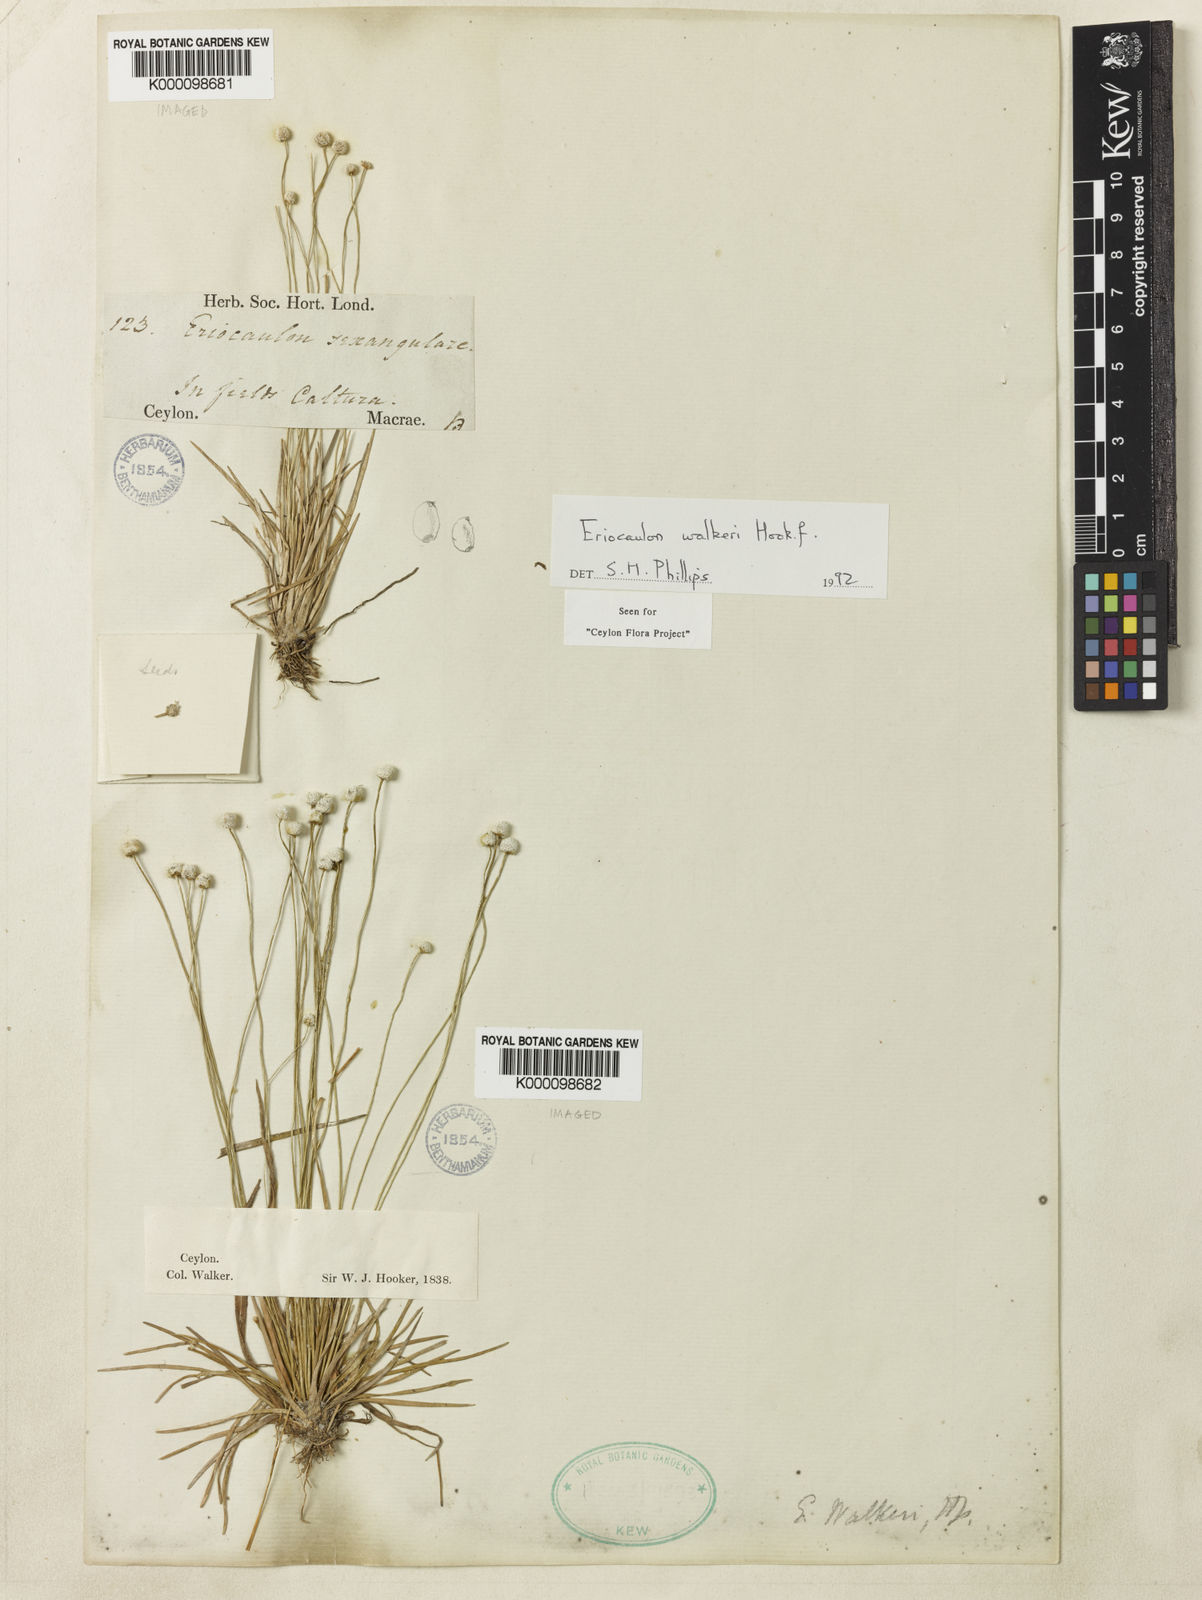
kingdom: Plantae
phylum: Tracheophyta
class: Liliopsida
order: Poales
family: Eriocaulaceae
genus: Eriocaulon
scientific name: Eriocaulon walkeri
